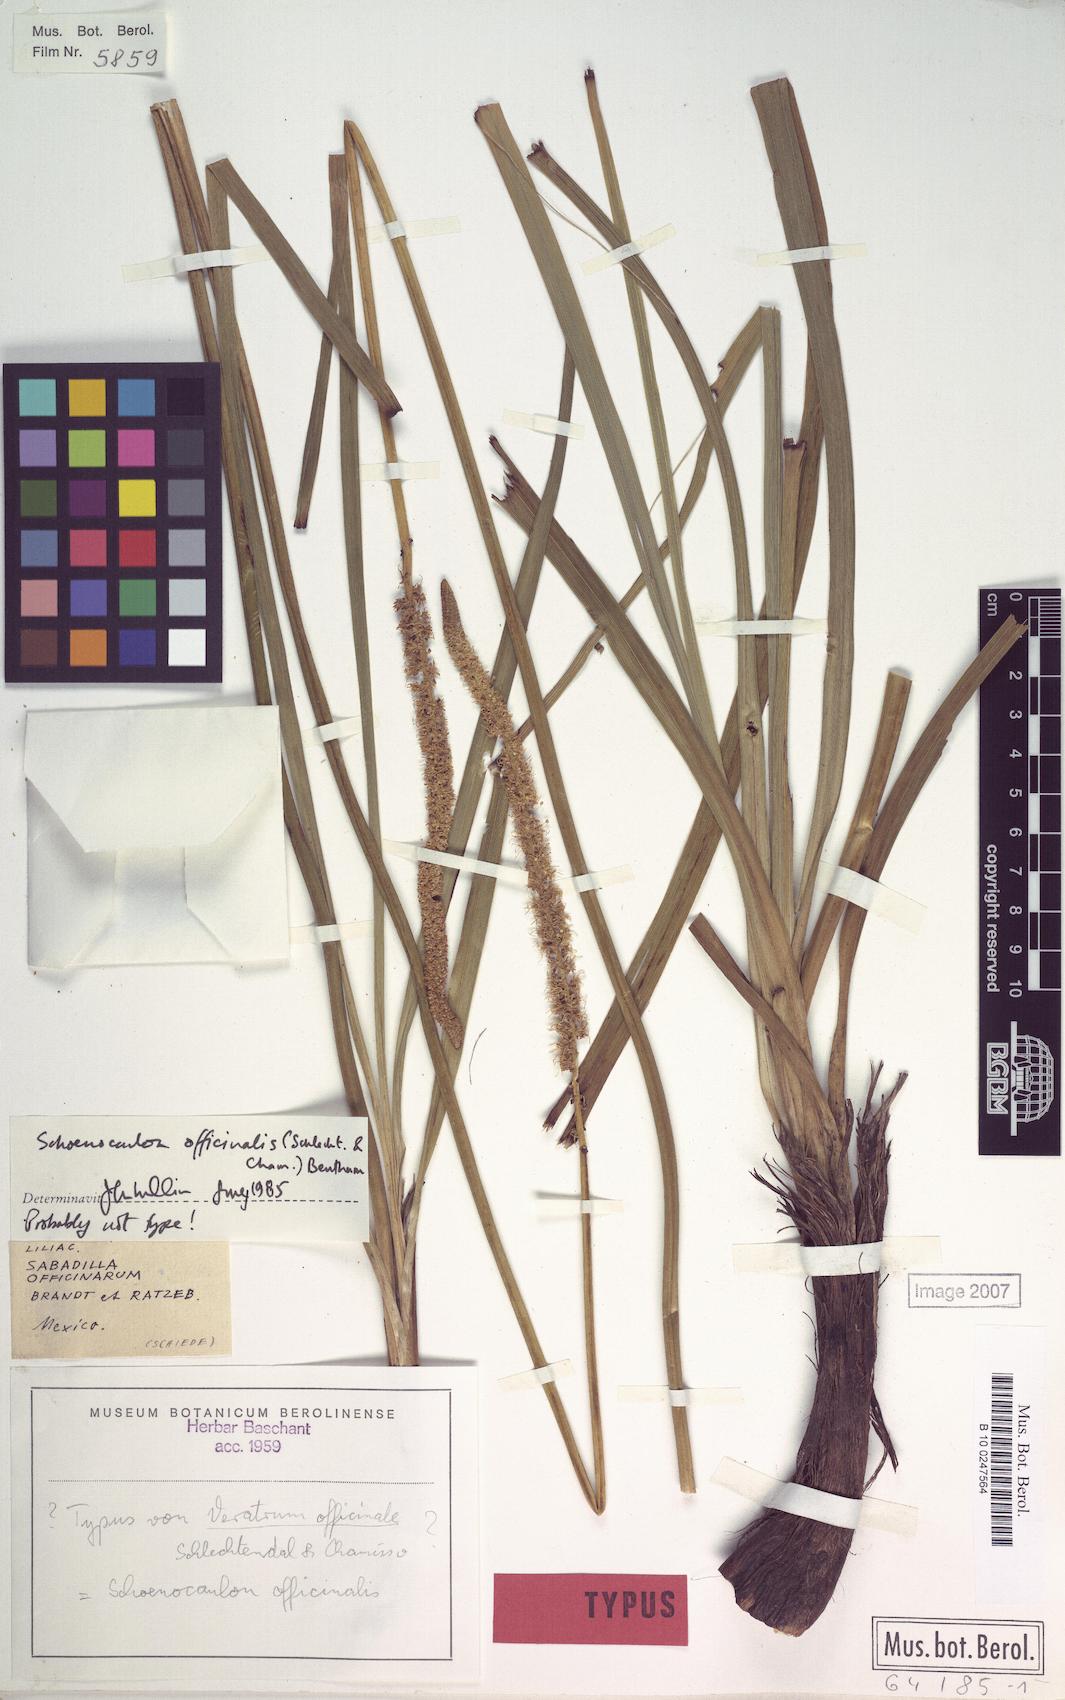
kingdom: Plantae
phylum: Tracheophyta
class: Liliopsida
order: Liliales
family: Melanthiaceae
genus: Schoenocaulon
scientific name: Schoenocaulon officinale
